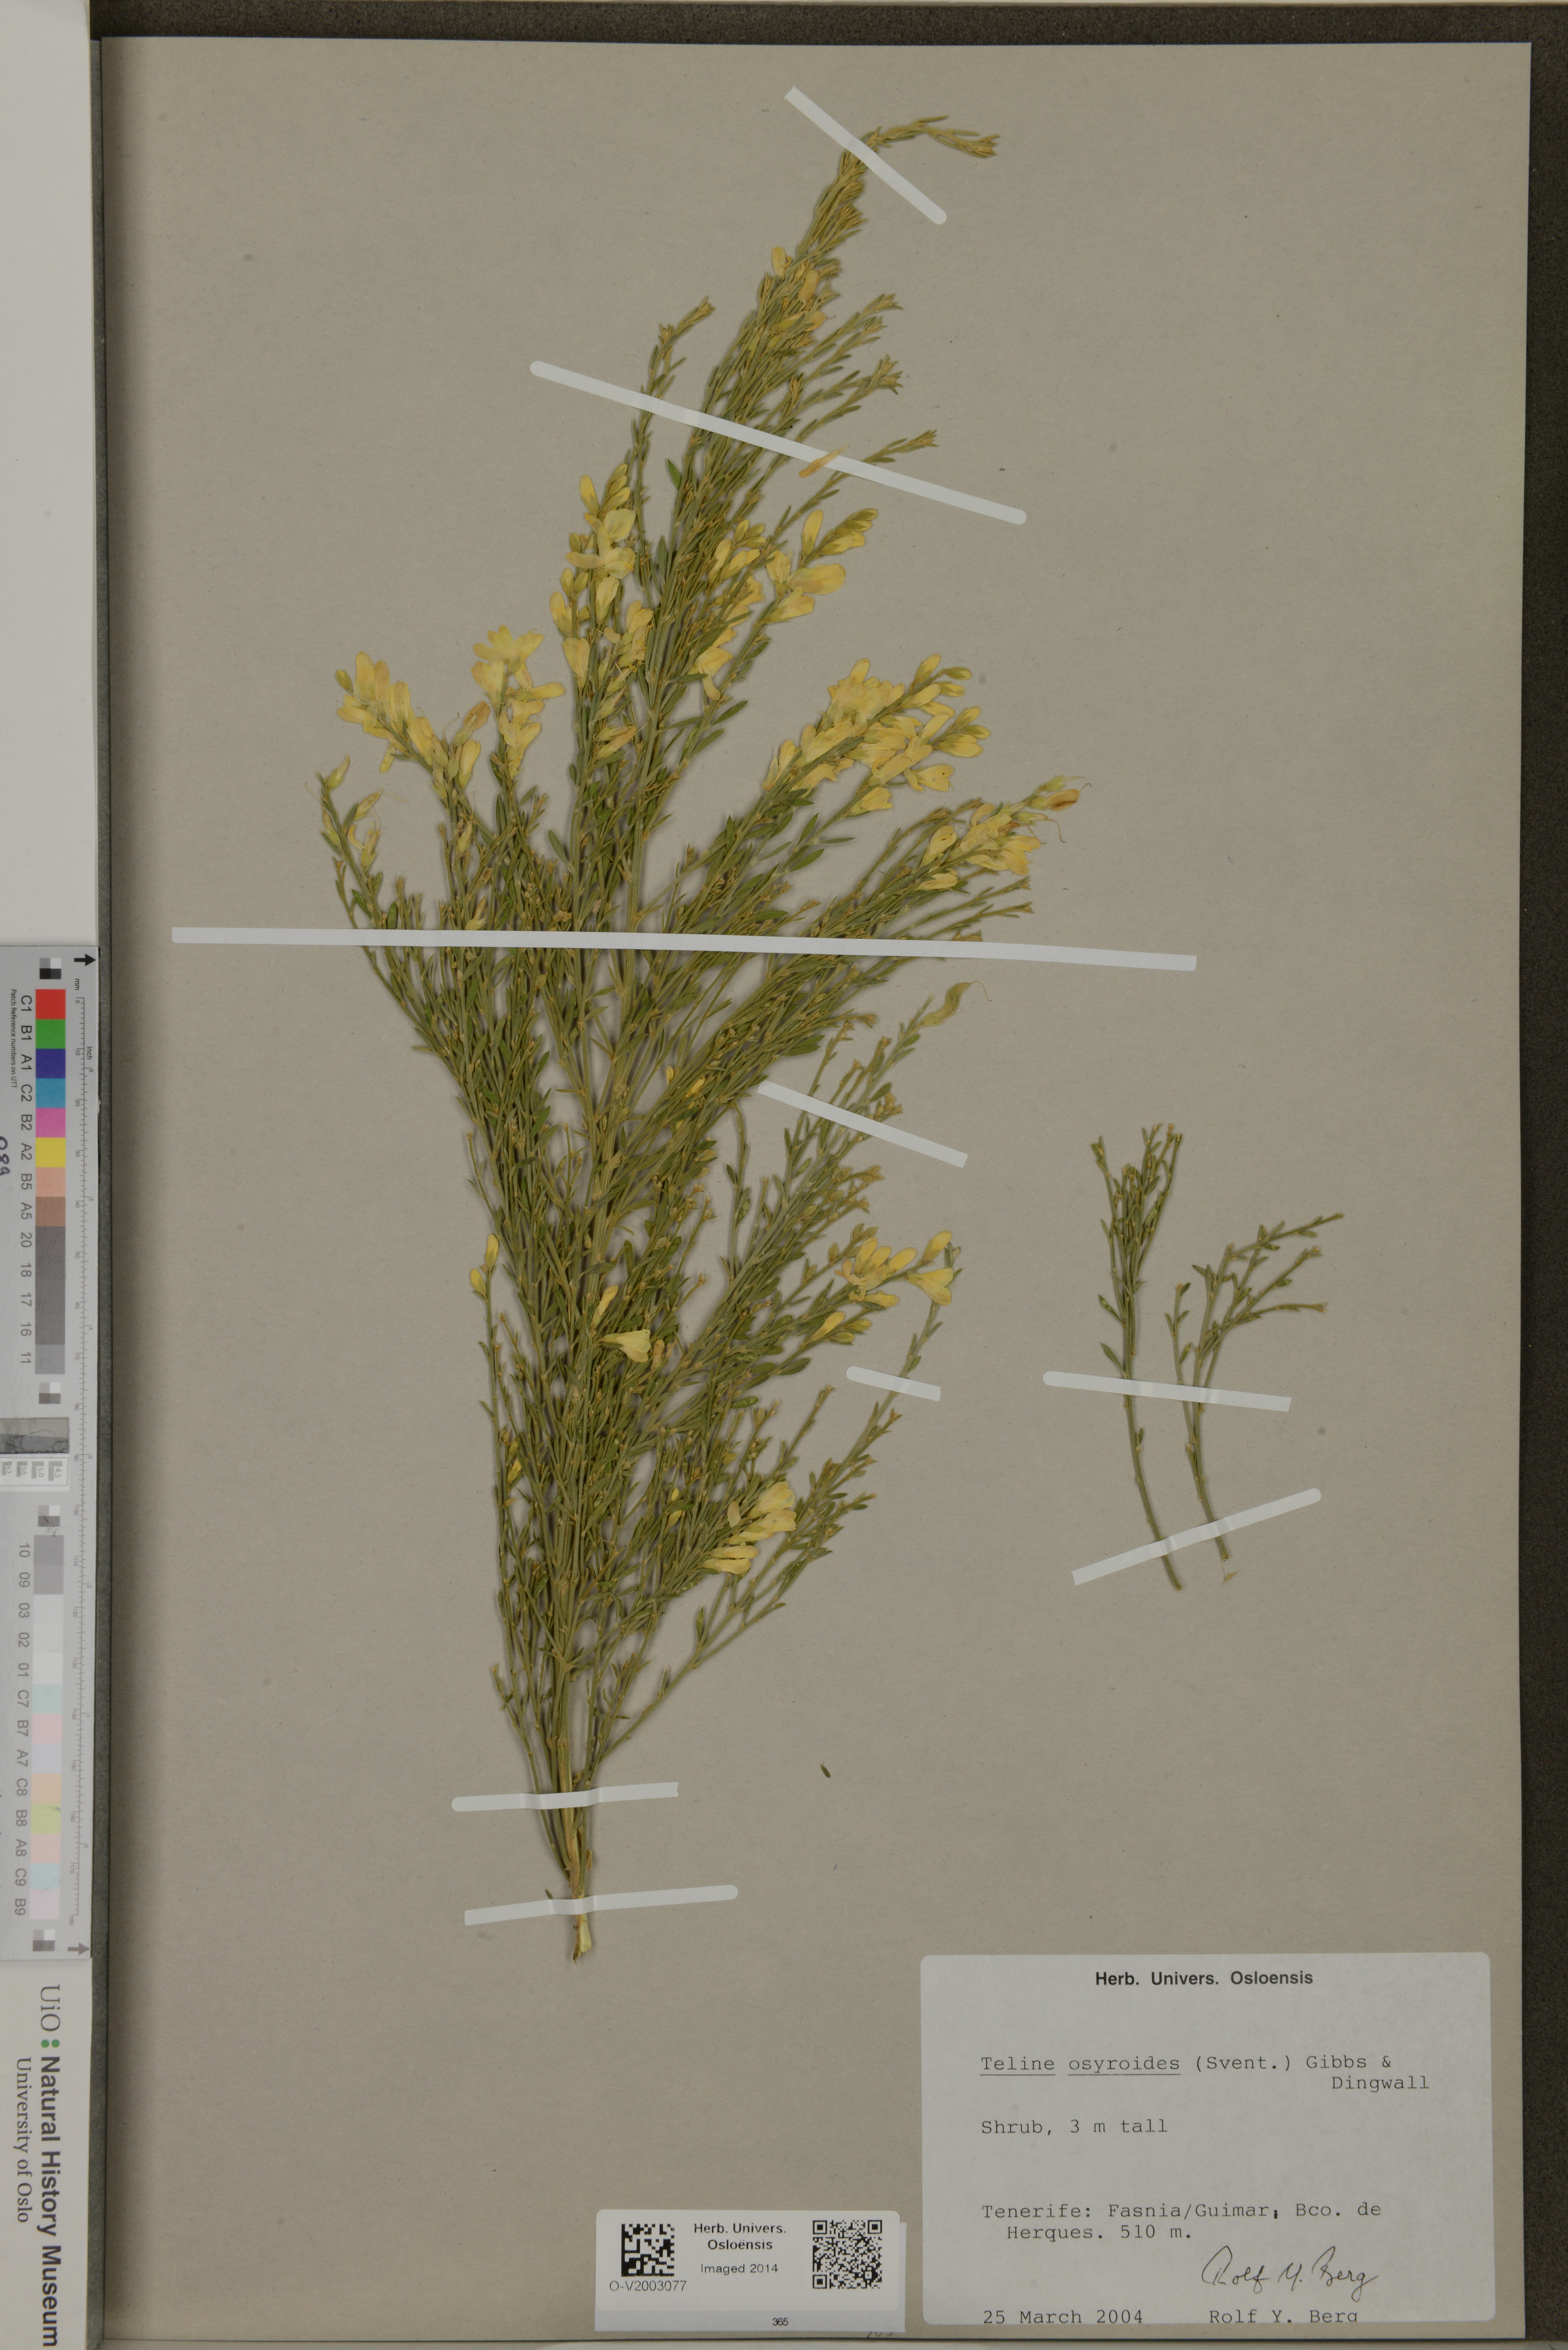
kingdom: Plantae
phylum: Tracheophyta
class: Magnoliopsida
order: Fabales
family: Fabaceae
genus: Cytisus
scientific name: Cytisus osyroides
